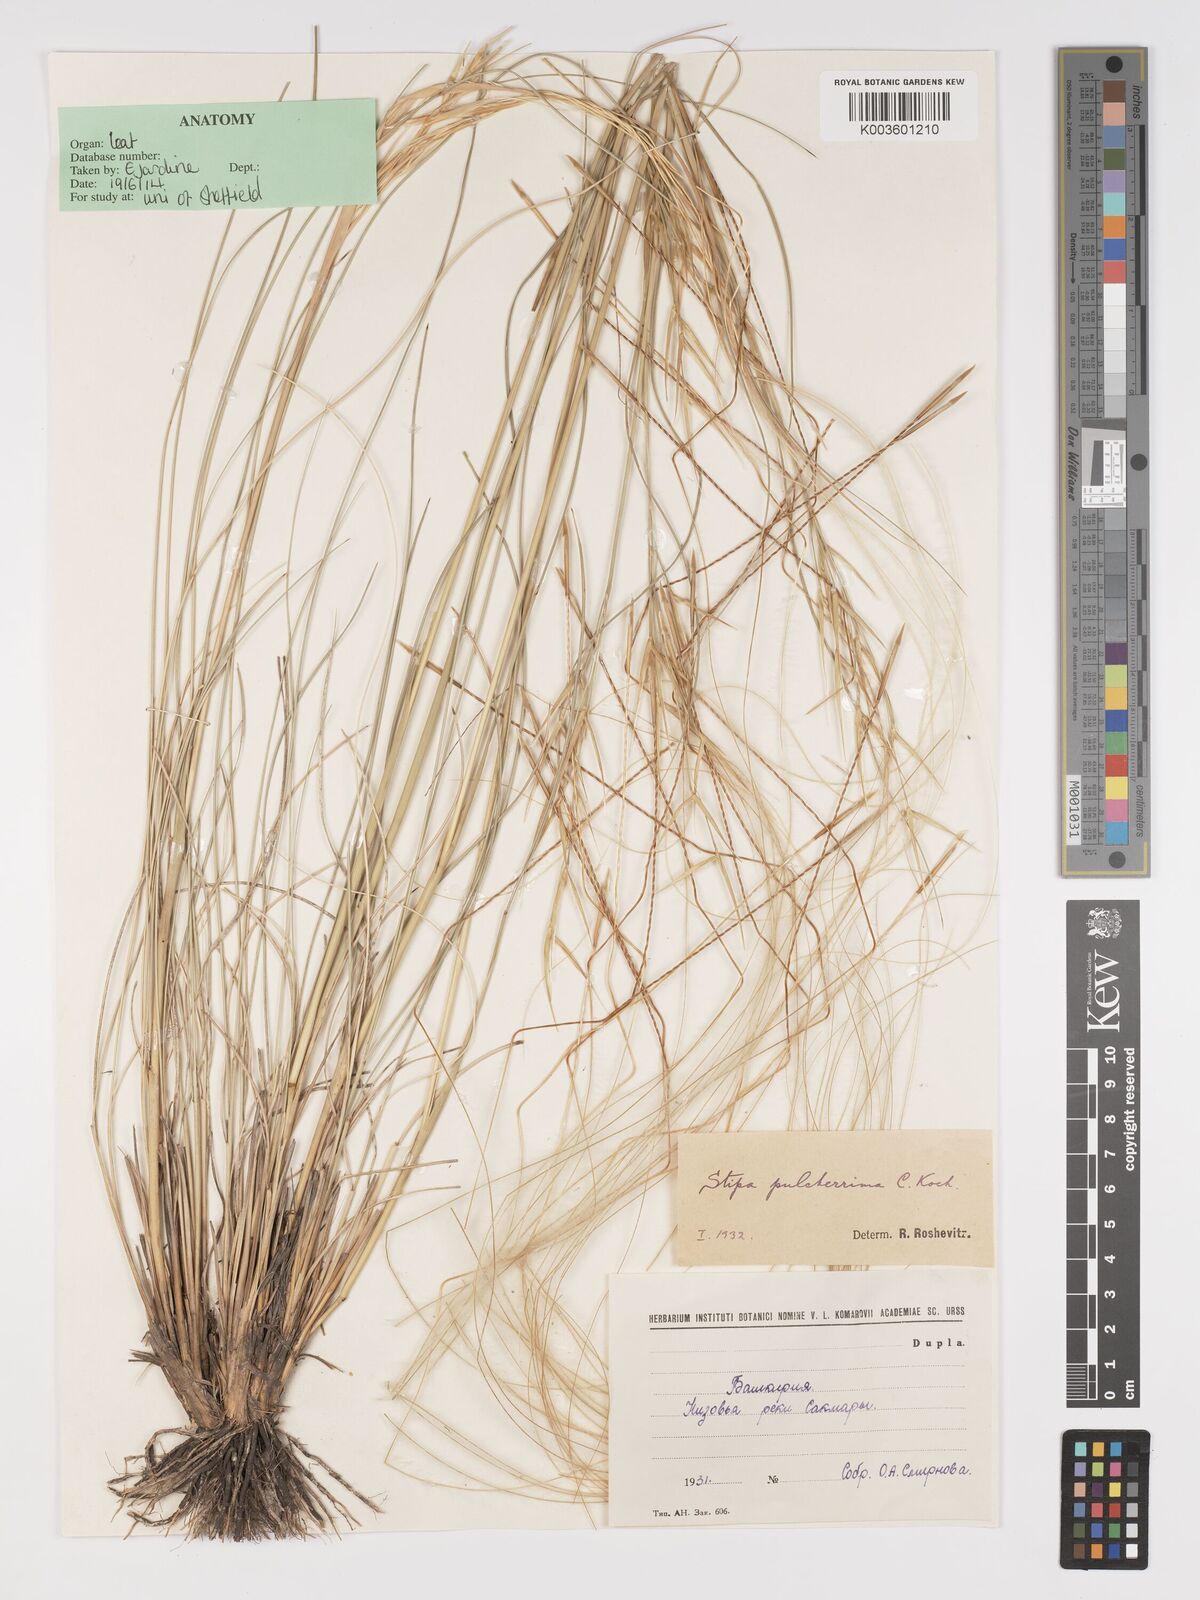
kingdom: Plantae
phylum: Tracheophyta
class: Liliopsida
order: Poales
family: Poaceae
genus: Stipa
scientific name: Stipa pulcherrima
